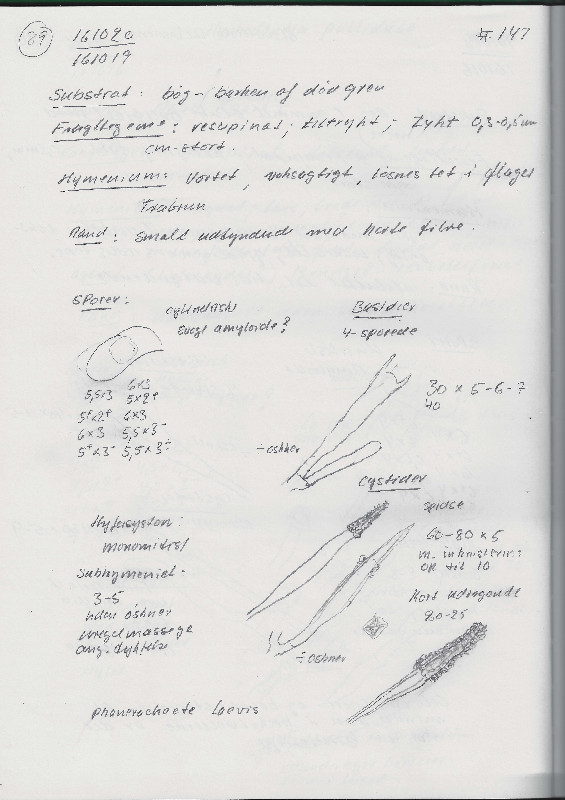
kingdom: Fungi
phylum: Basidiomycota
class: Agaricomycetes
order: Polyporales
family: Phanerochaetaceae
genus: Phanerochaete
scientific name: Phanerochaete laevis
